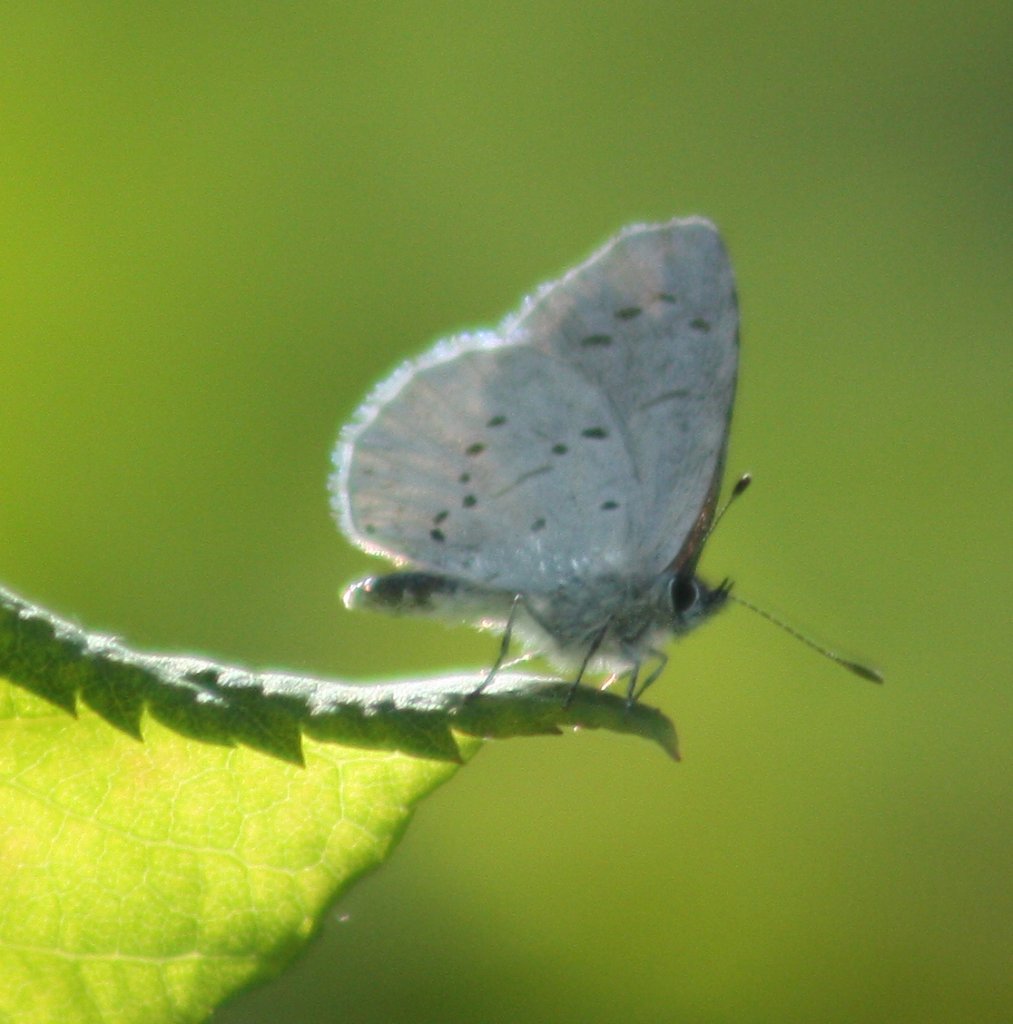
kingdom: Animalia
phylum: Arthropoda
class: Insecta
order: Lepidoptera
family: Lycaenidae
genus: Glaucopsyche
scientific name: Glaucopsyche lygdamus
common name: Silvery Blue
